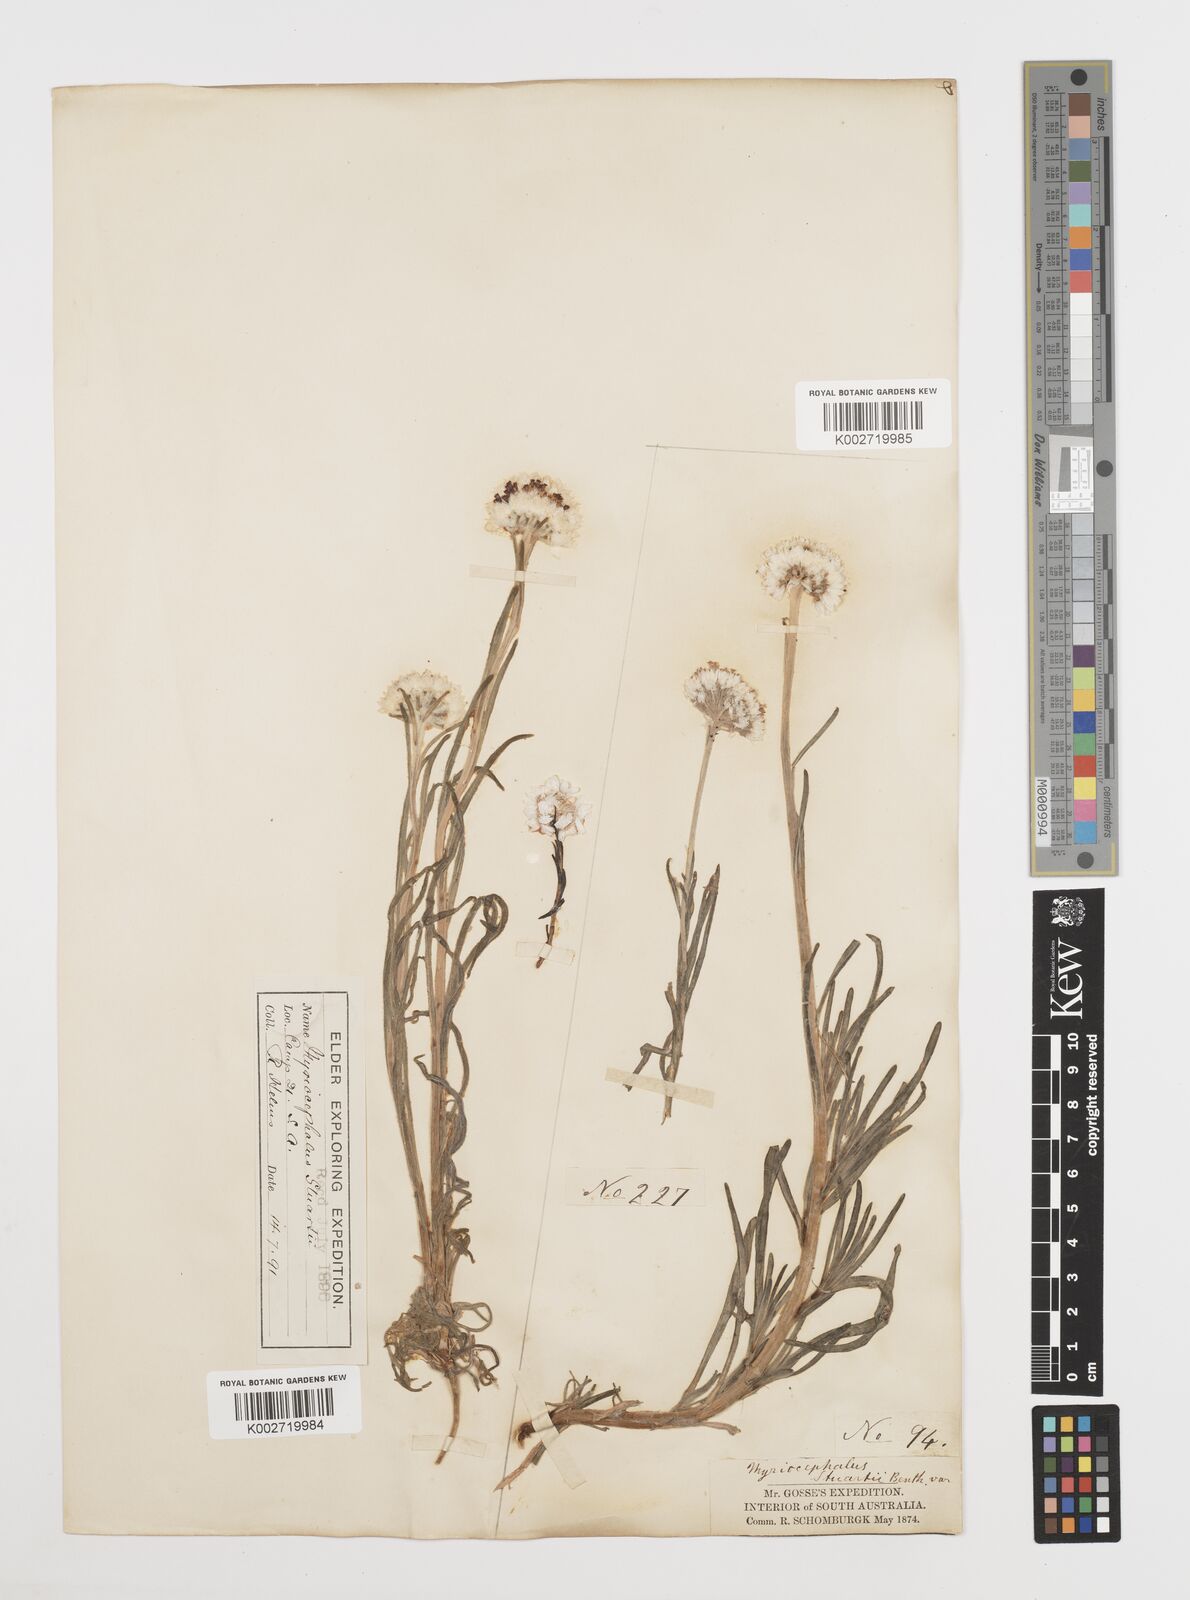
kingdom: Plantae
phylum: Tracheophyta
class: Magnoliopsida
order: Asterales
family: Asteraceae
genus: Polycalymma
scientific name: Polycalymma stuartii
